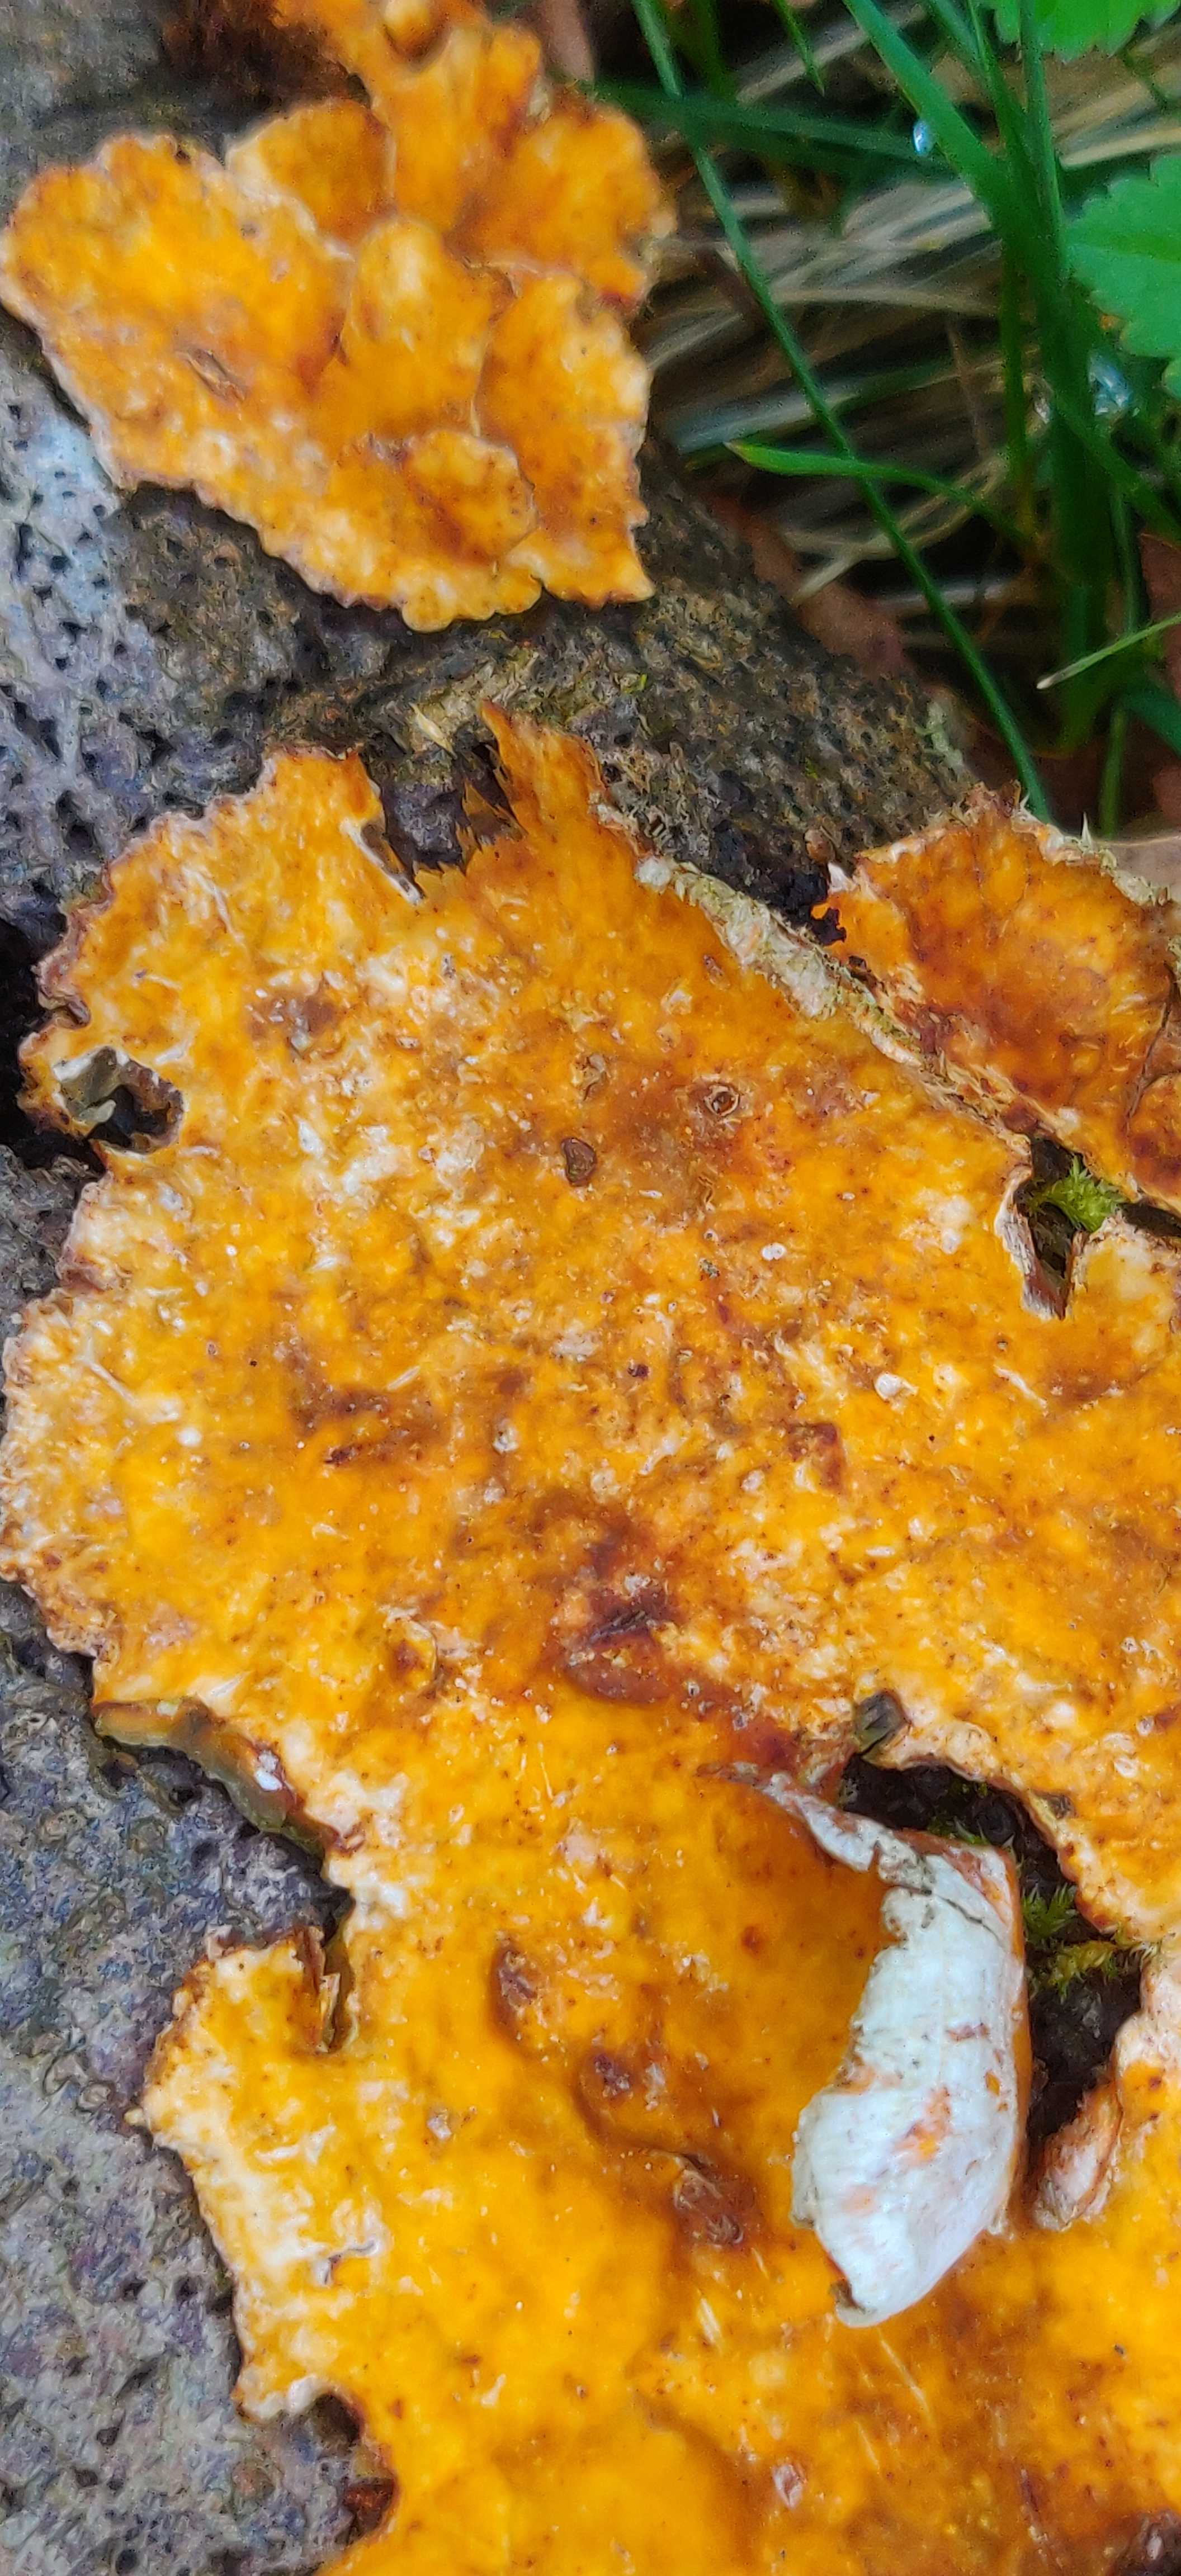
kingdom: Fungi
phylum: Basidiomycota
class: Agaricomycetes
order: Russulales
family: Stereaceae
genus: Stereum
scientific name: Stereum hirsutum
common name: håret lædersvamp
